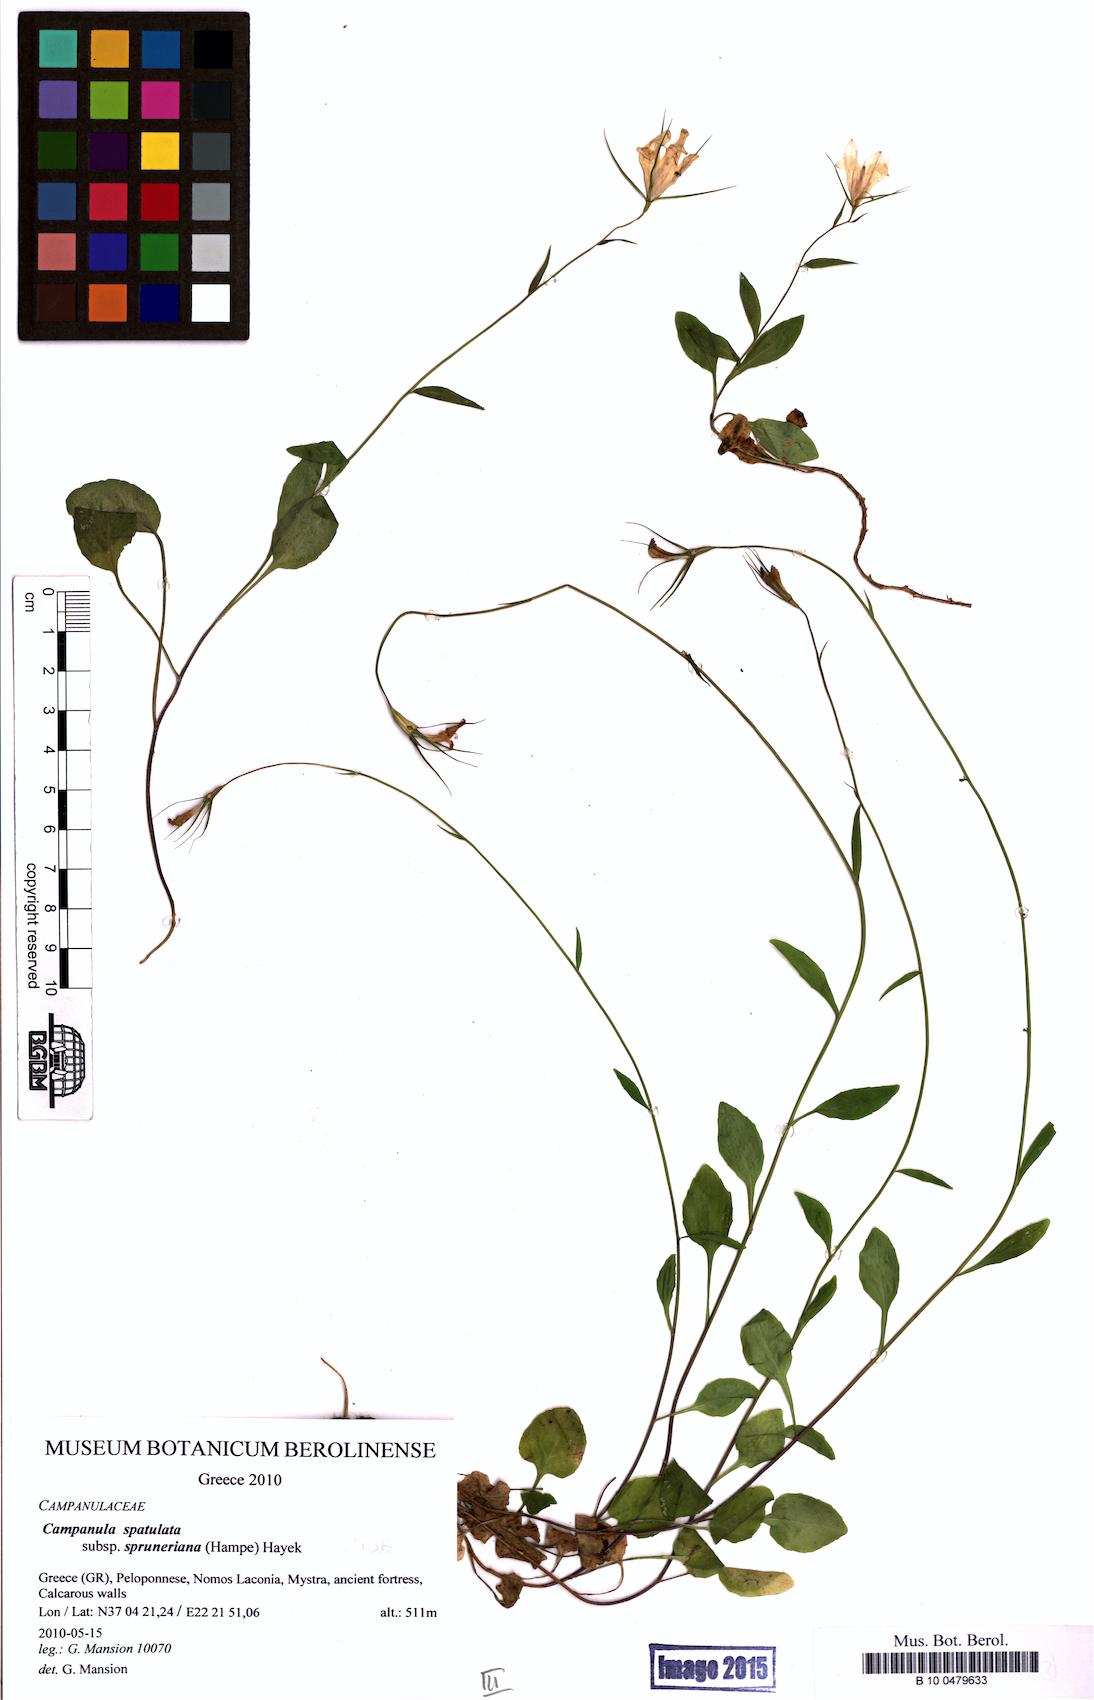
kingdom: Plantae
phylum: Tracheophyta
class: Magnoliopsida
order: Asterales
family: Campanulaceae
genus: Campanula
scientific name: Campanula spatulata
